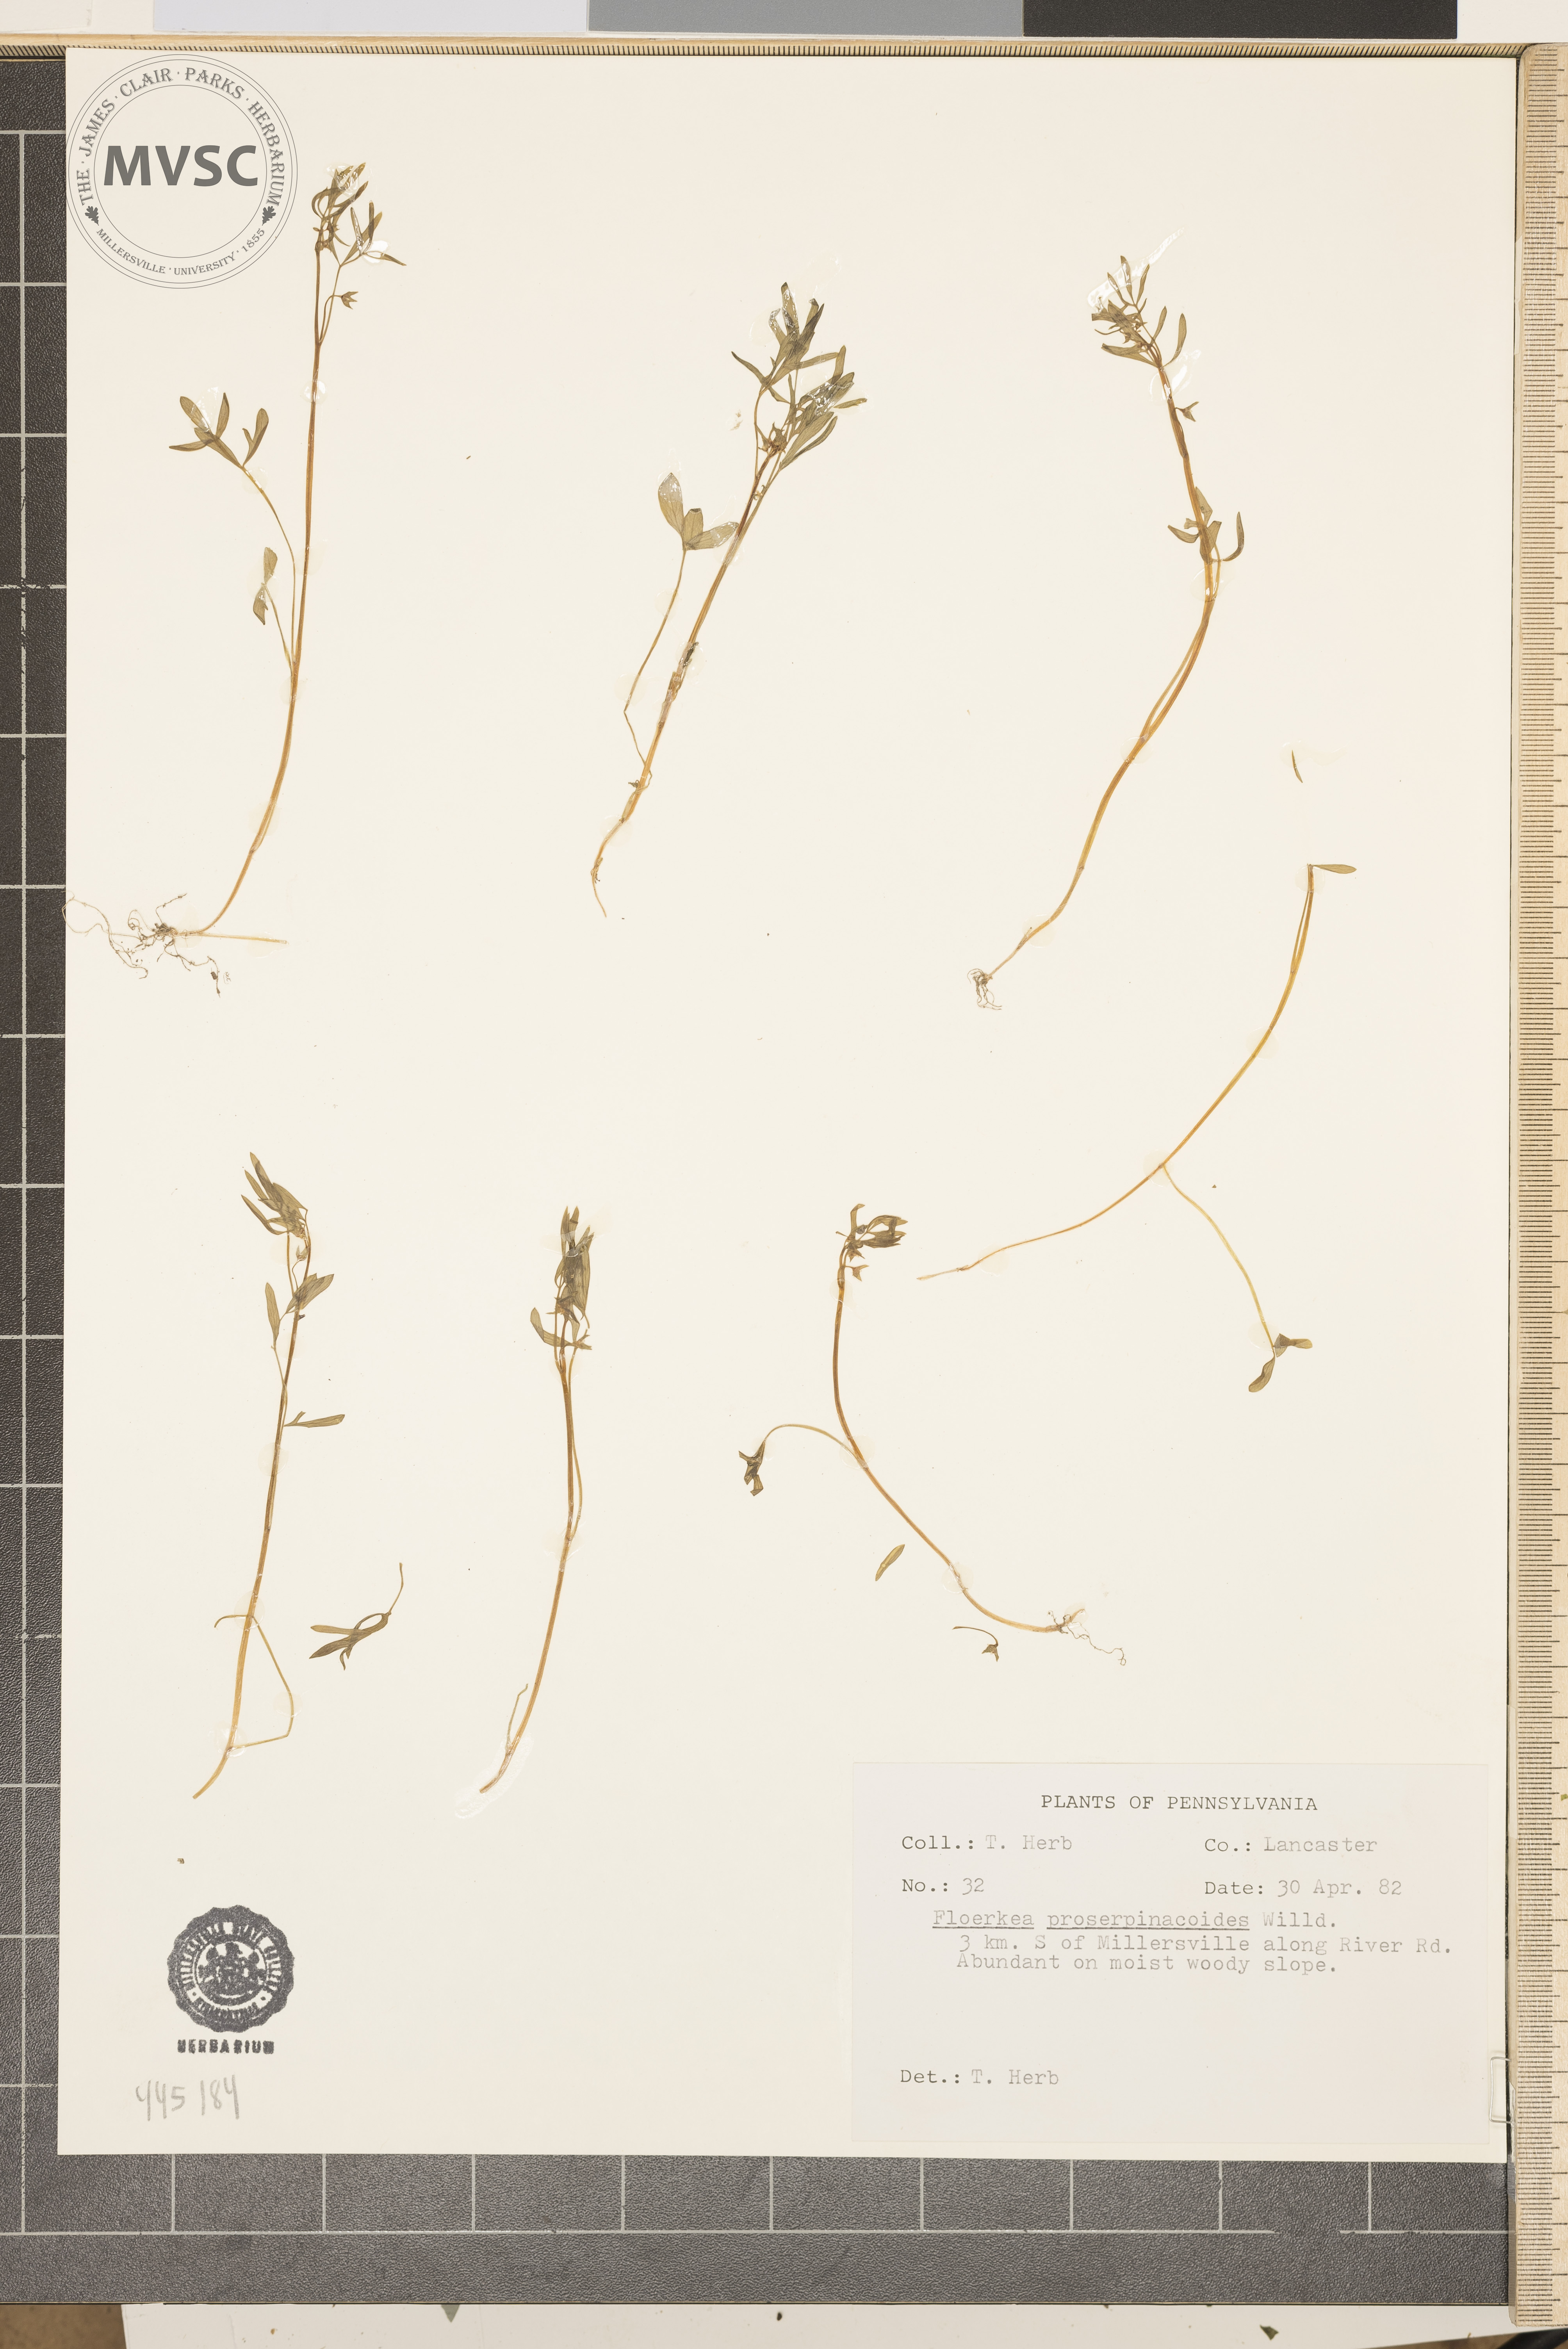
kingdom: Plantae
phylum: Tracheophyta
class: Magnoliopsida
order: Brassicales
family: Limnanthaceae
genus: Floerkea
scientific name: Floerkea proserpinacoides
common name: False mermaid
